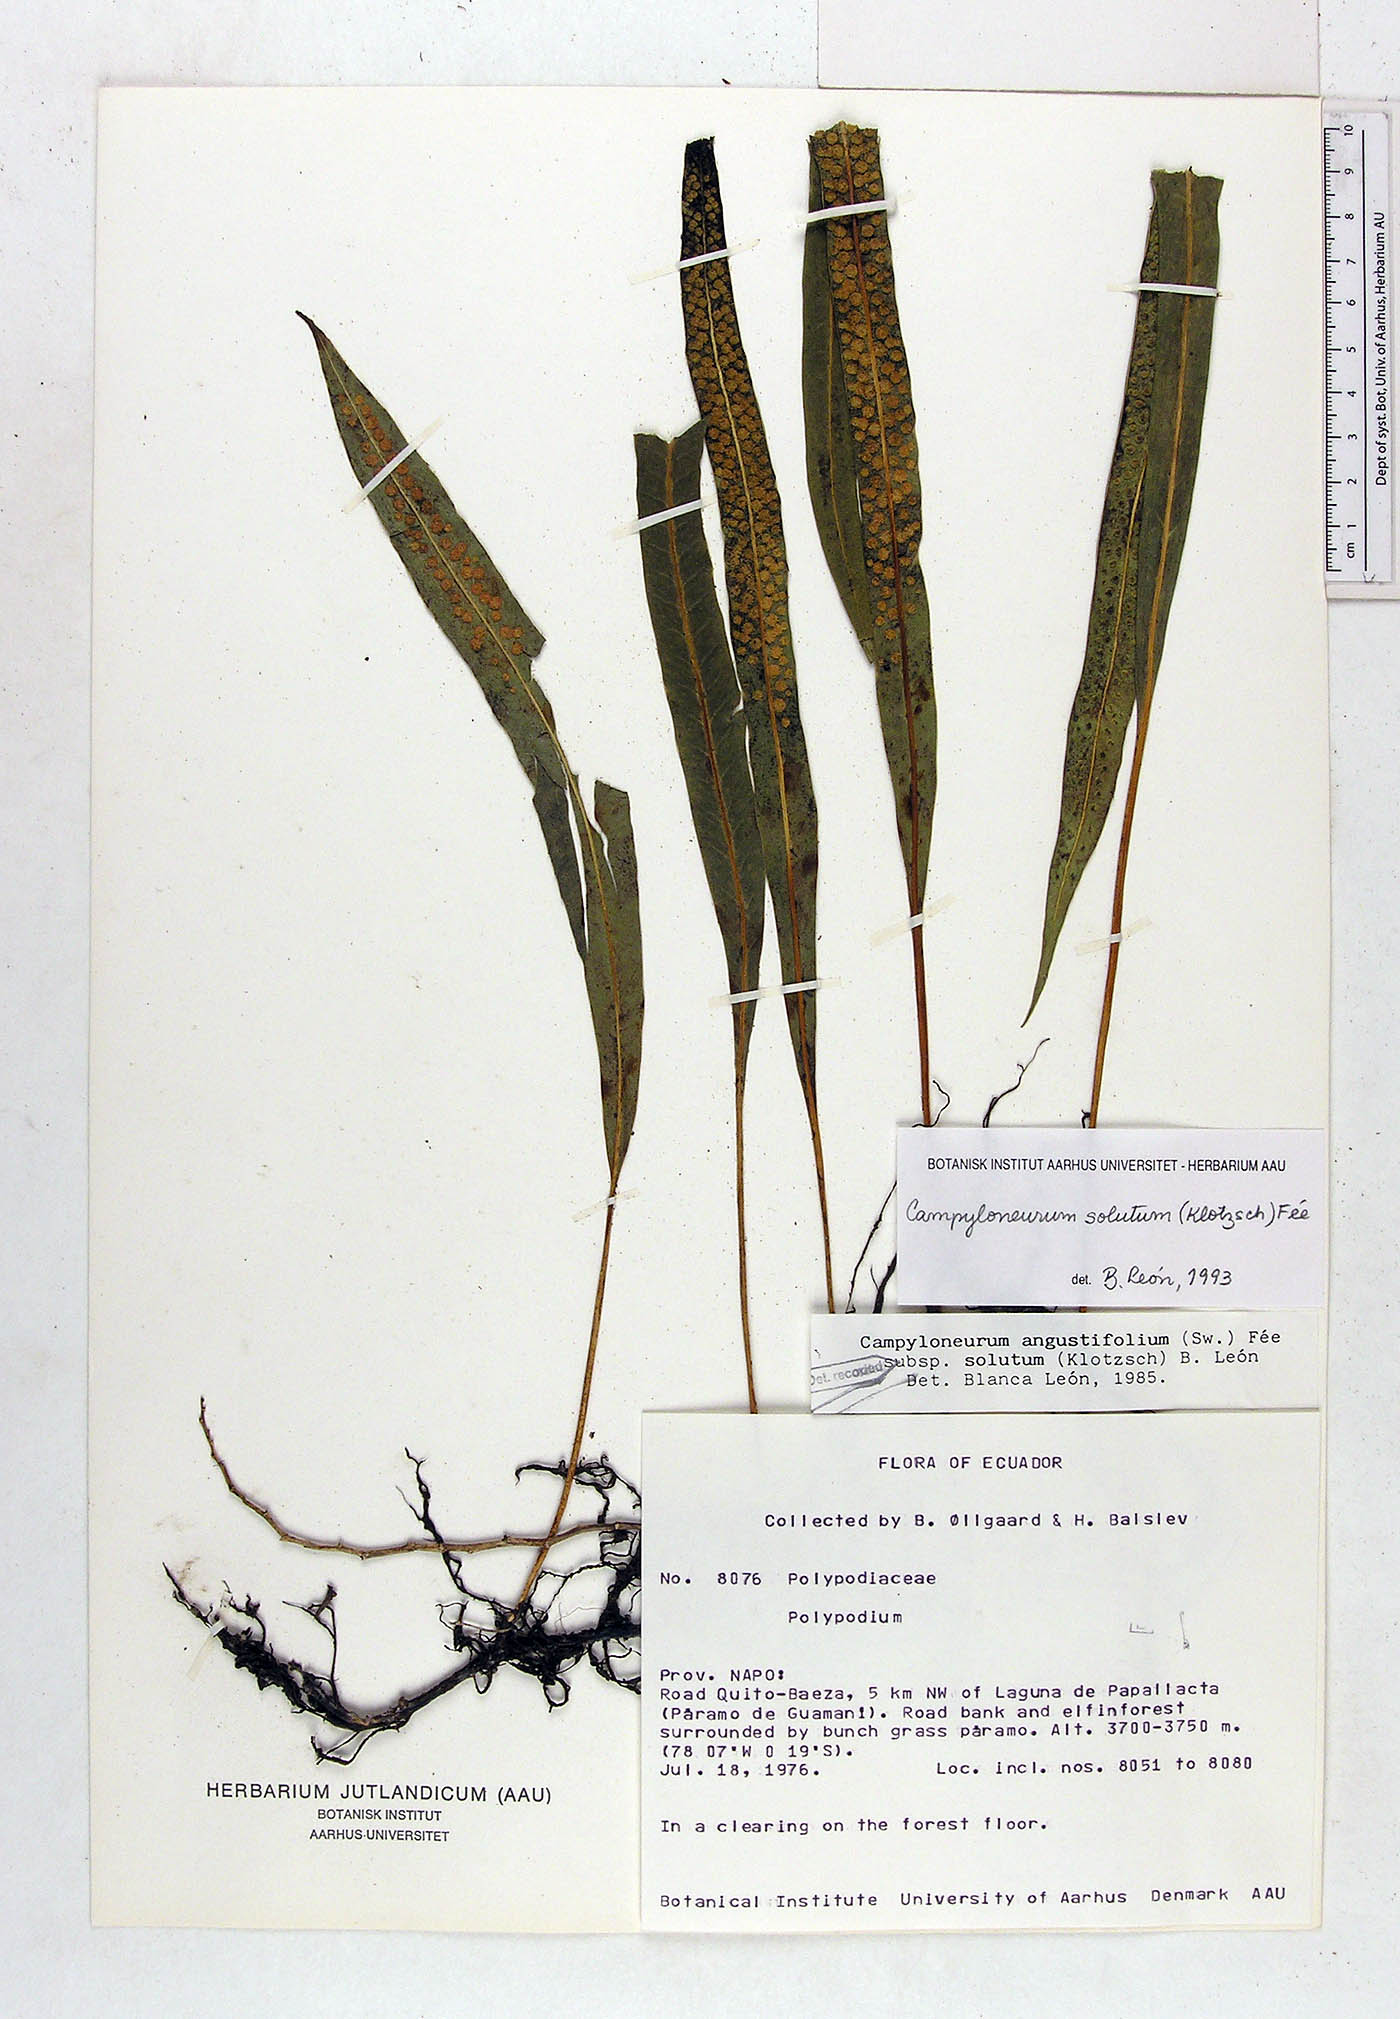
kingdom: Plantae
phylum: Tracheophyta
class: Polypodiopsida
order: Polypodiales
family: Polypodiaceae
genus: Campyloneurum
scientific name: Campyloneurum solutum
